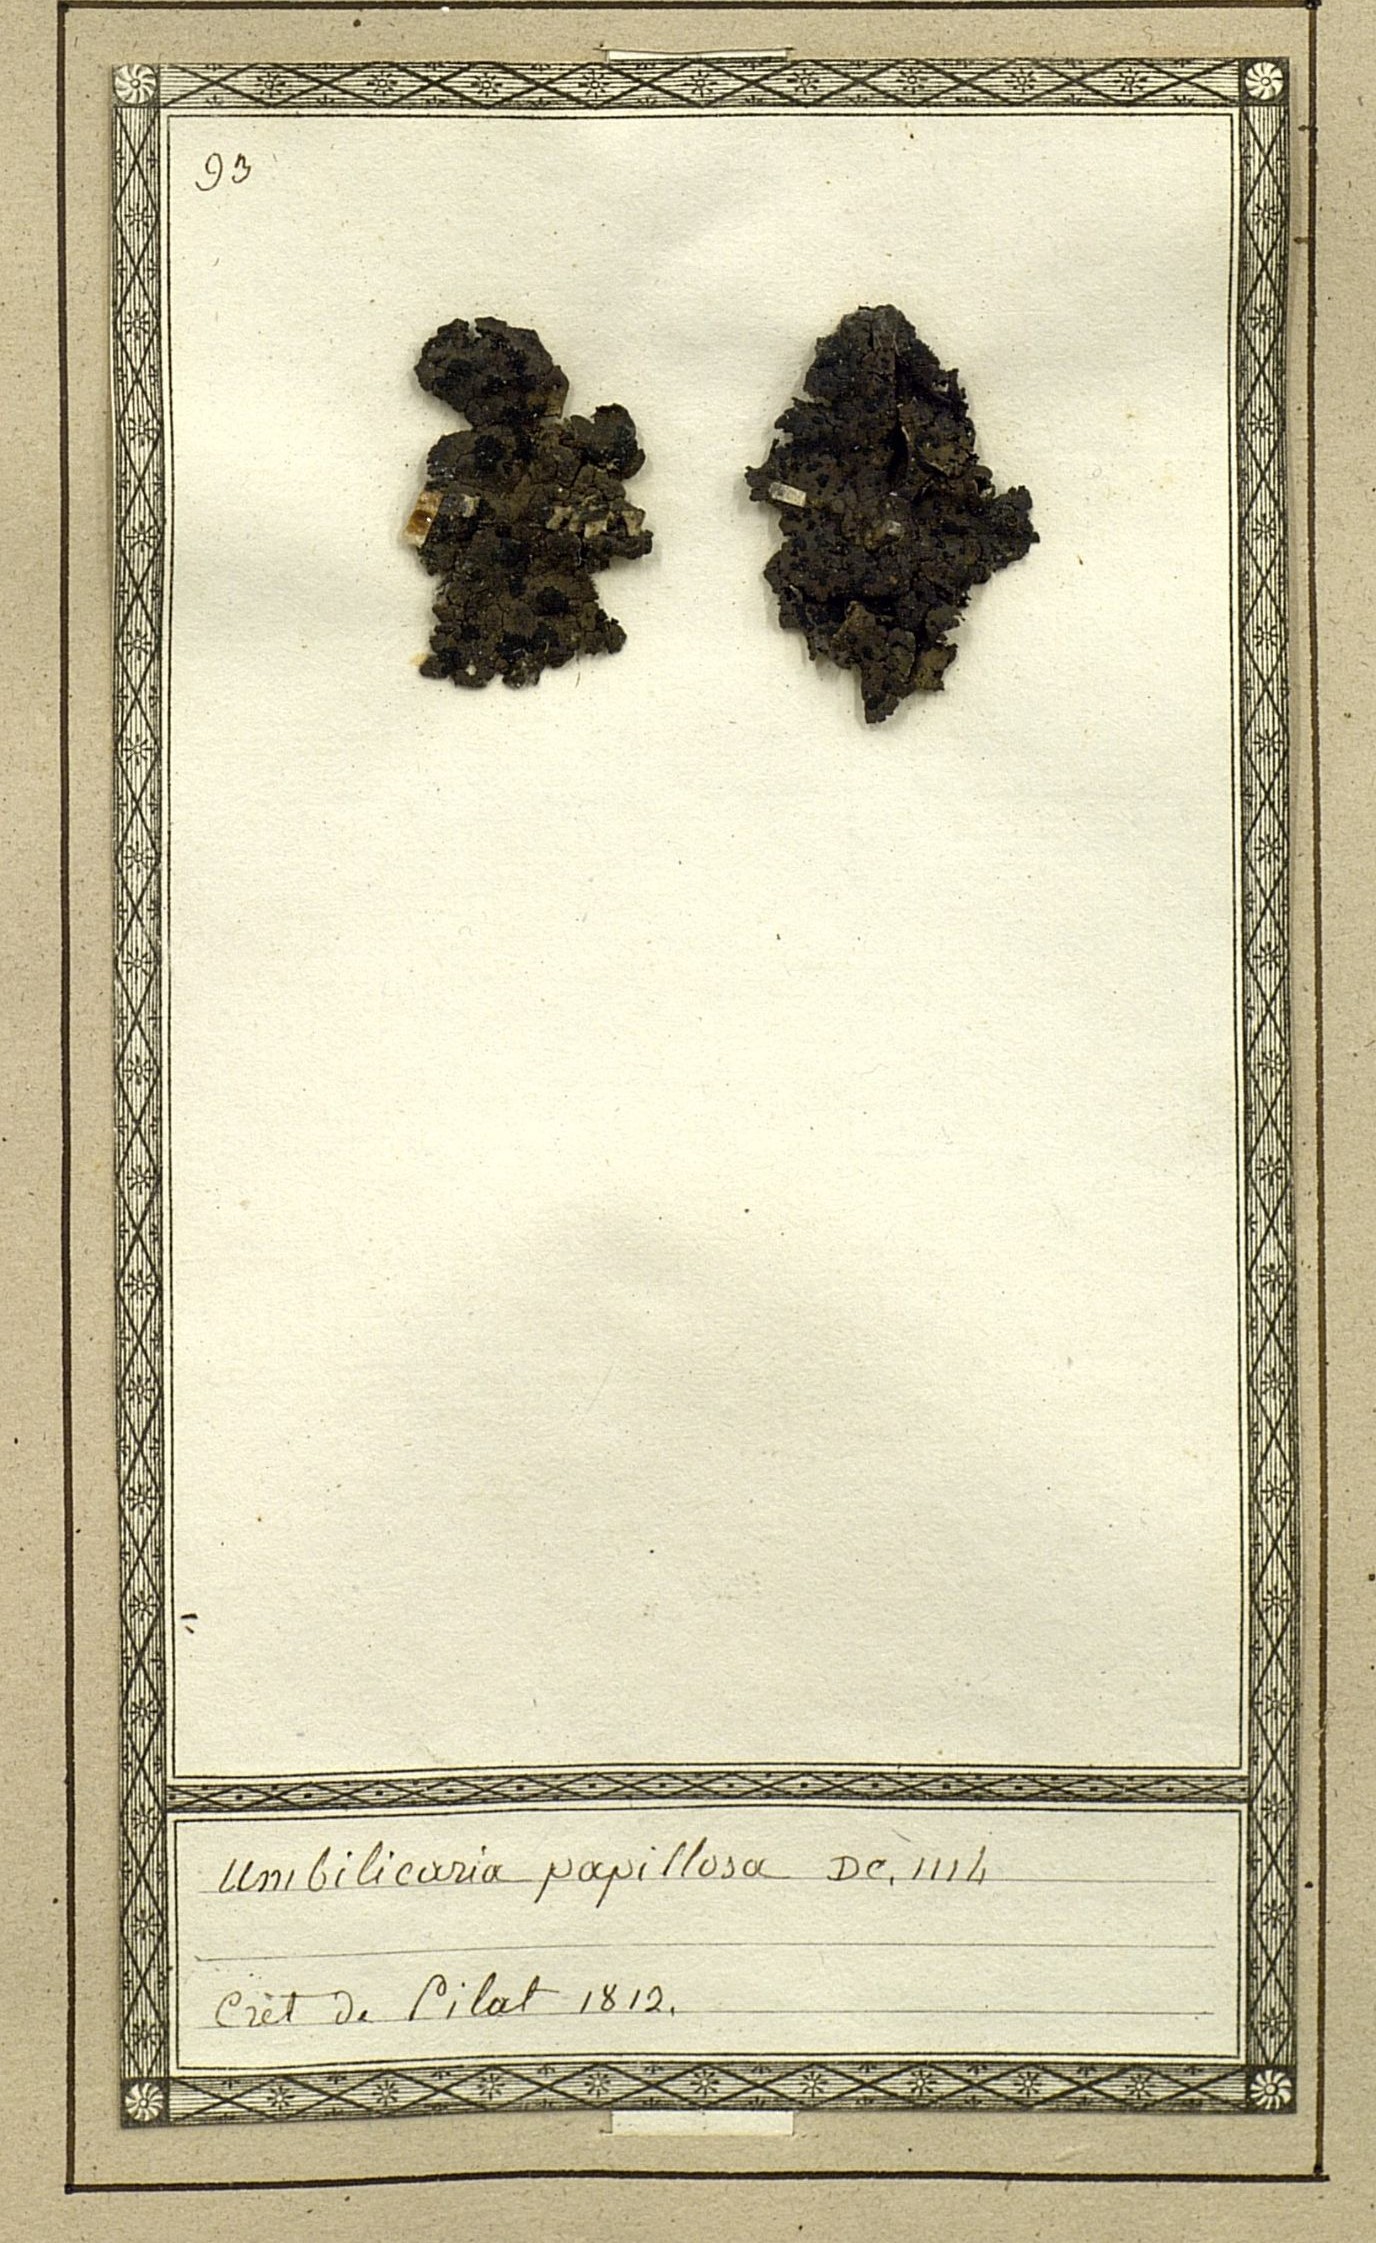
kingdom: Fungi
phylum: Ascomycota
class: Lecanoromycetes
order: Umbilicariales
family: Umbilicariaceae
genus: Lasallia
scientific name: Lasallia papulosa
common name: Common toadskin lichen
